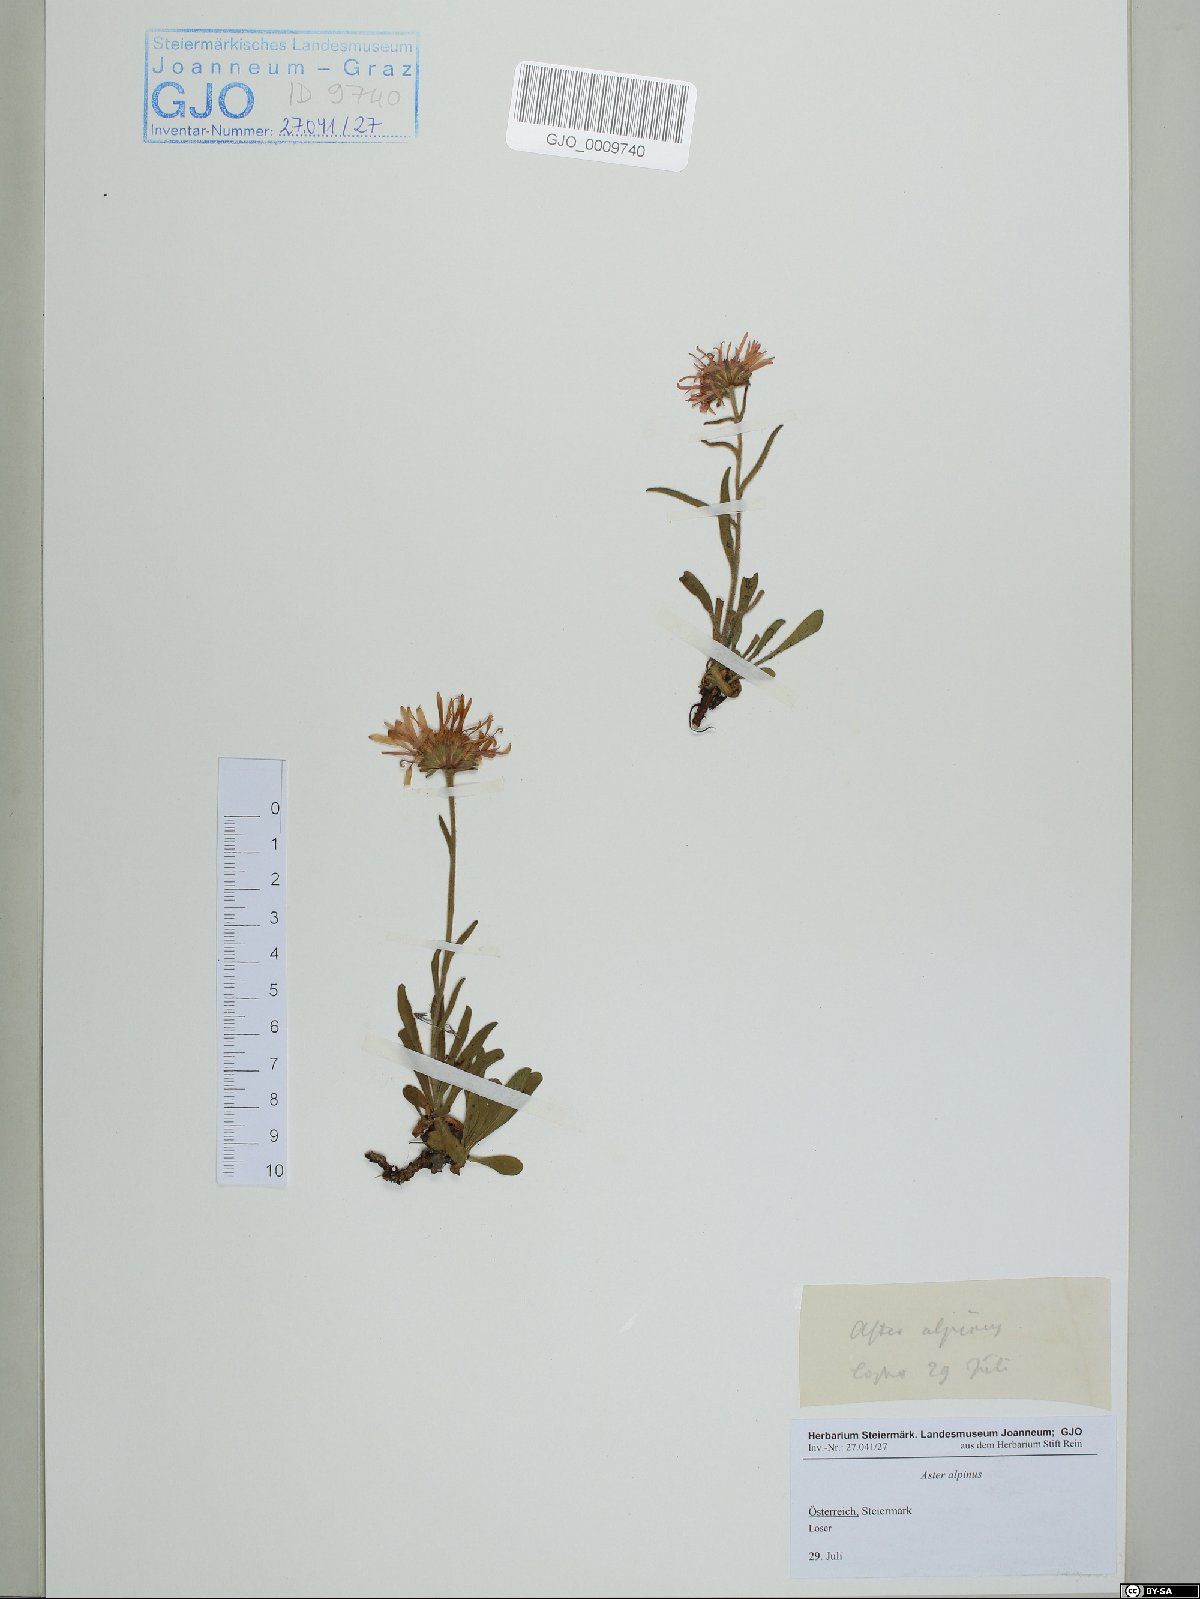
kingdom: Plantae
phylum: Tracheophyta
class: Magnoliopsida
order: Asterales
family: Asteraceae
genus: Aster
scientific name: Aster alpinus
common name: Alpine aster
